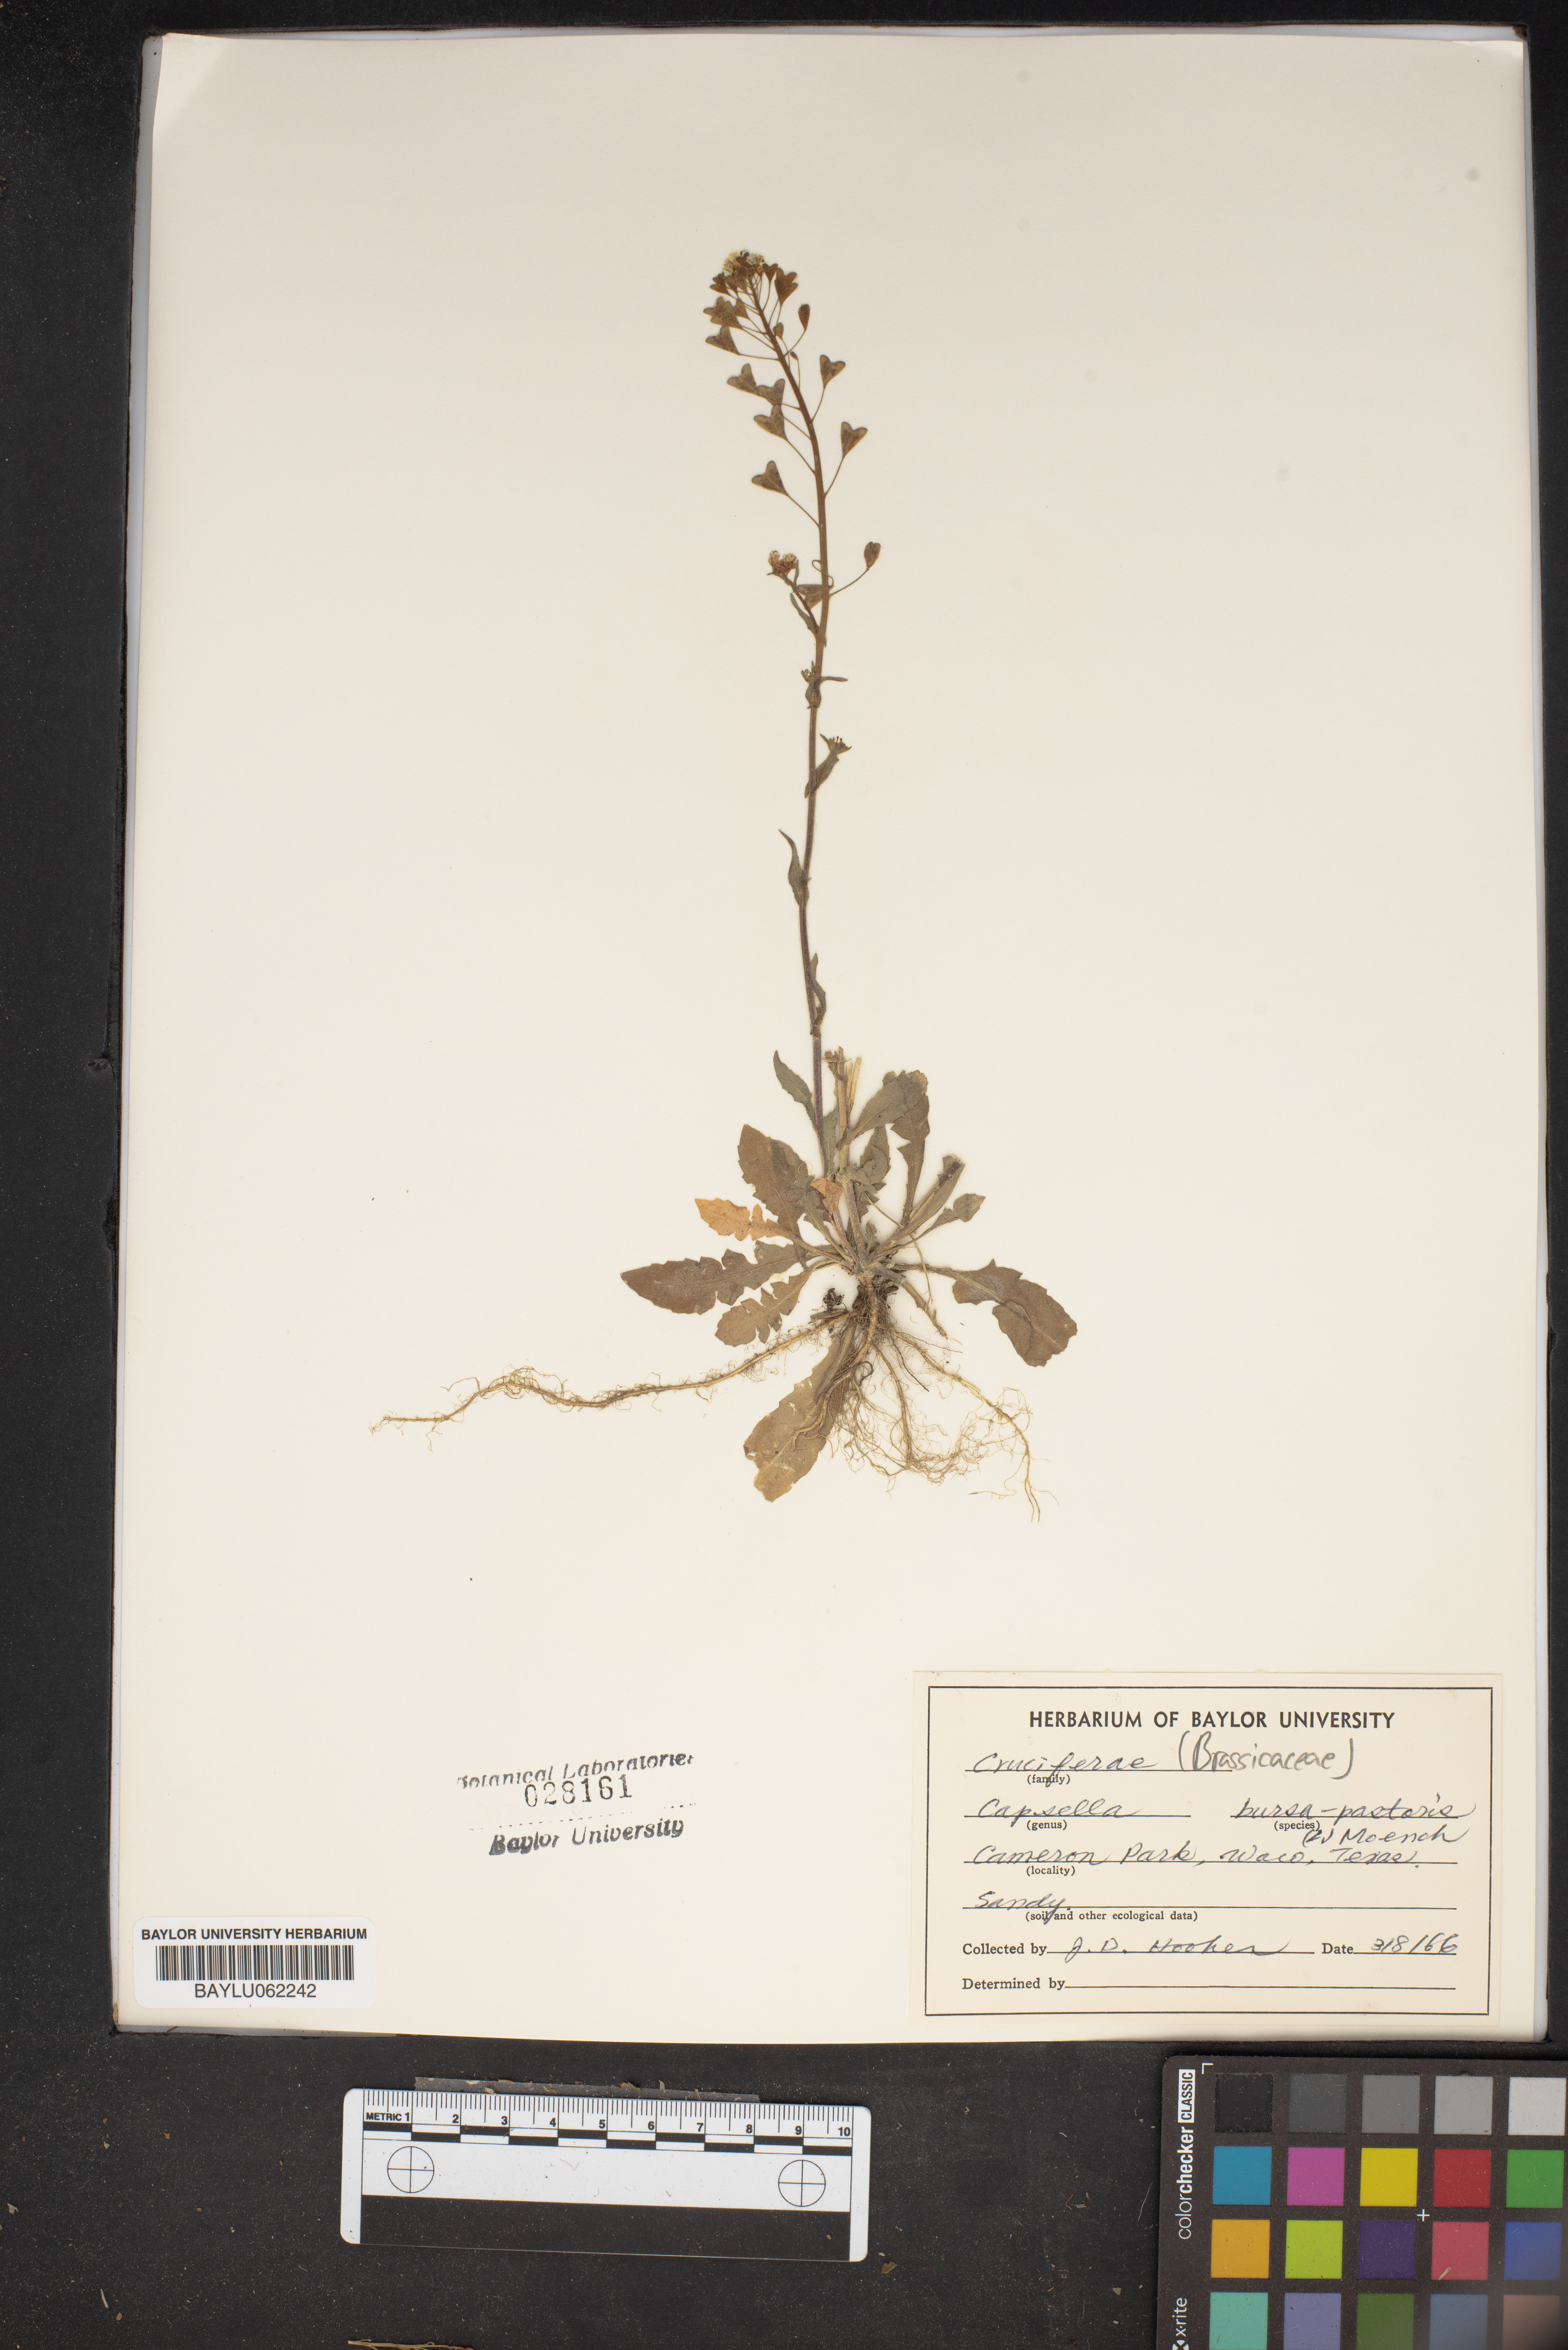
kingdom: Plantae
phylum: Tracheophyta
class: Magnoliopsida
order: Brassicales
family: Brassicaceae
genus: Capsella
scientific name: Capsella bursa-pastoris
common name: Shepherd's purse
